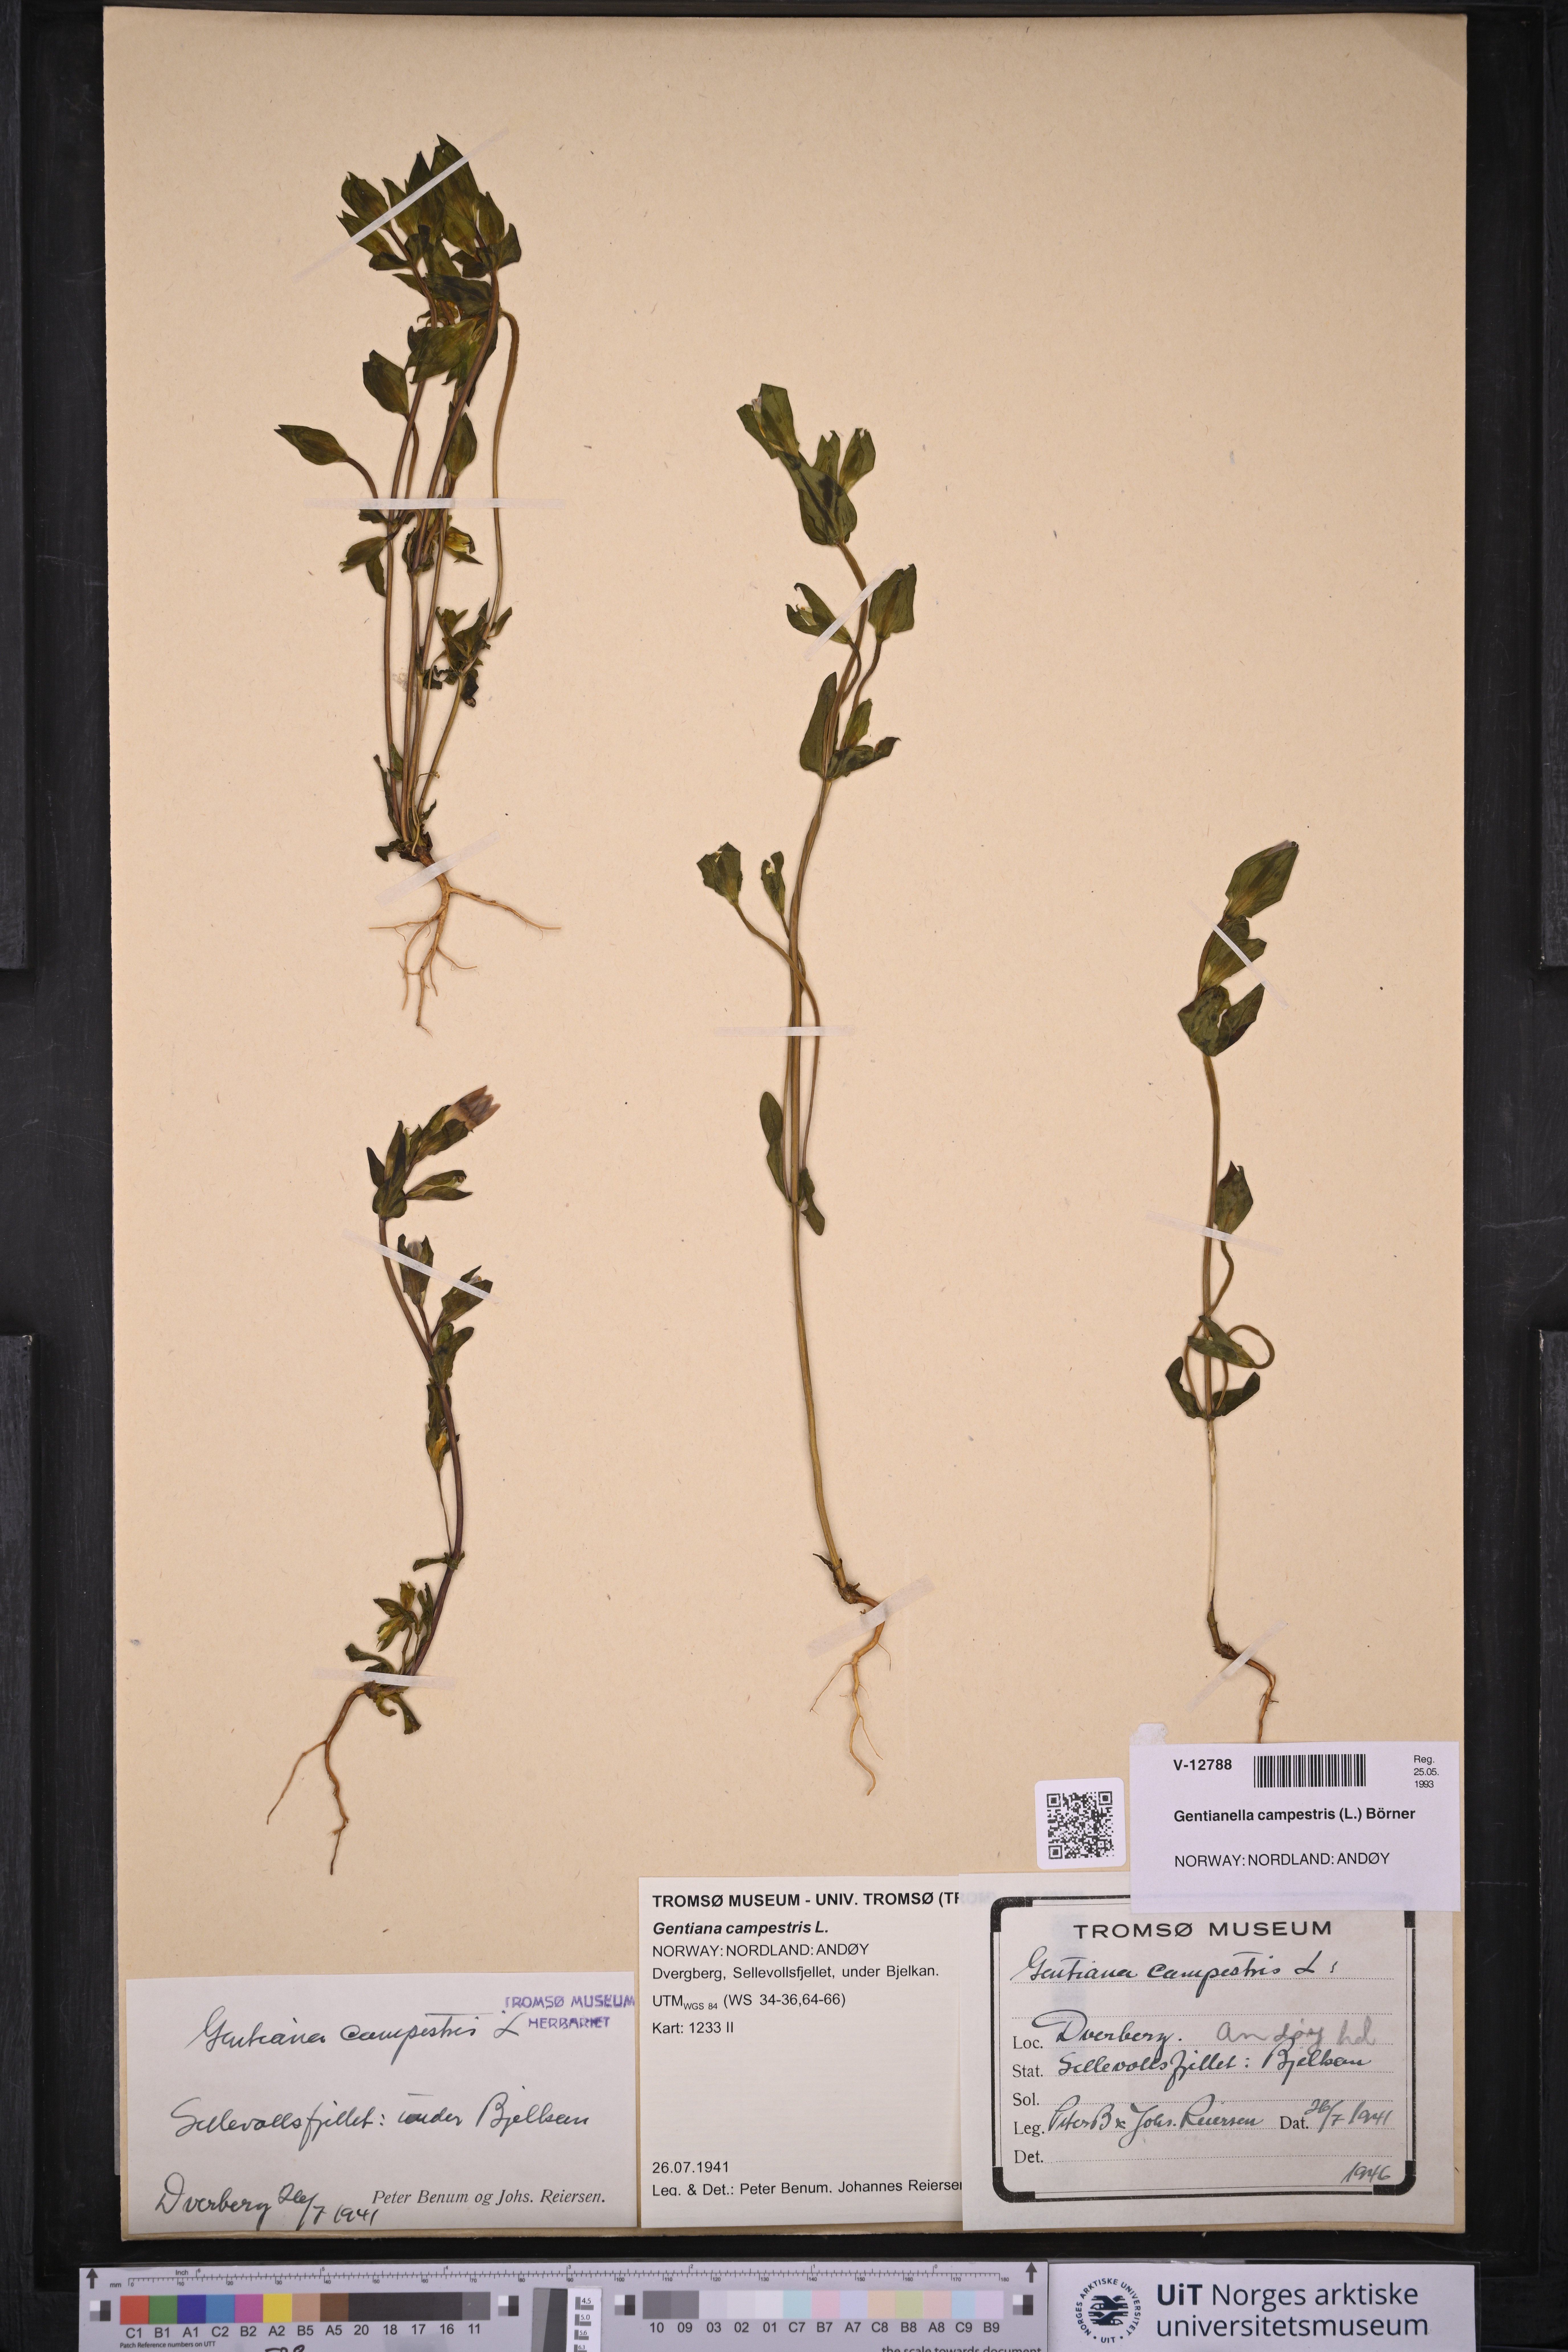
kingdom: Plantae
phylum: Tracheophyta
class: Magnoliopsida
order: Gentianales
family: Gentianaceae
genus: Gentianella
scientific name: Gentianella campestris
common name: Field gentian
